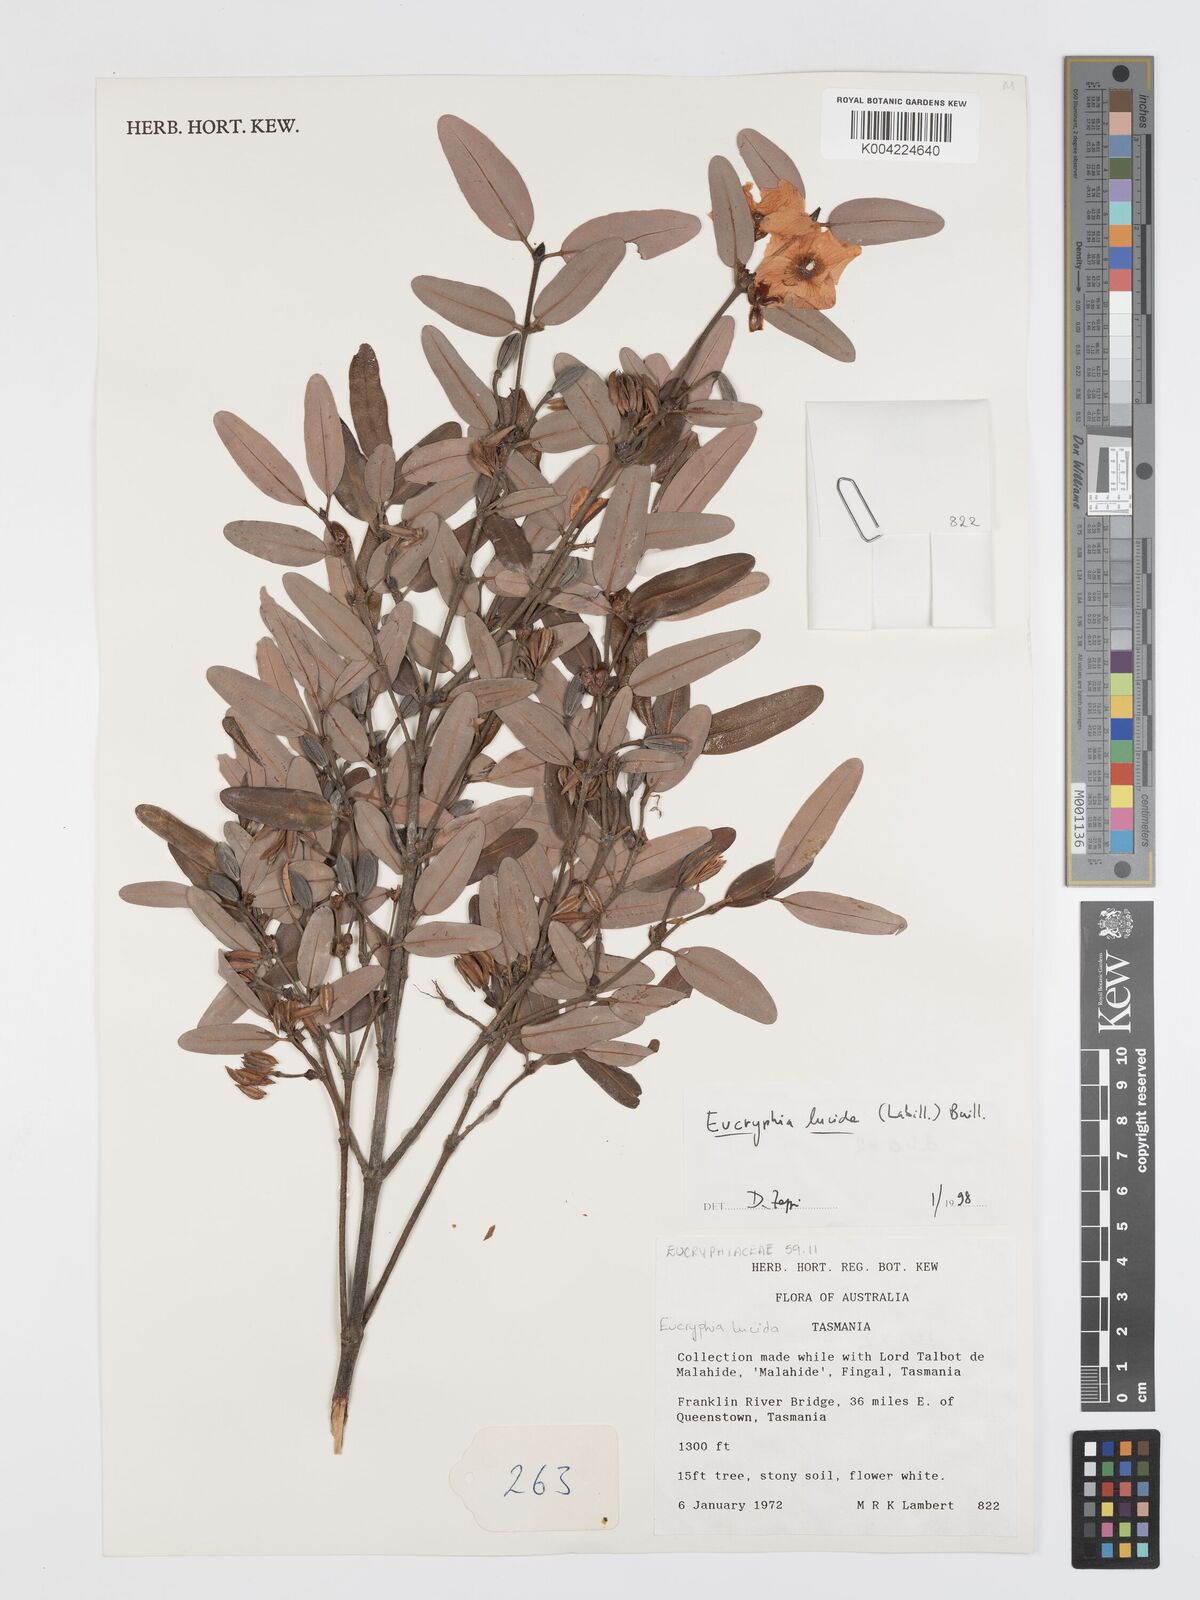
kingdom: Plantae
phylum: Tracheophyta
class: Magnoliopsida
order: Oxalidales
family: Cunoniaceae
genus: Eucryphia
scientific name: Eucryphia lucida
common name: Leatherwood
